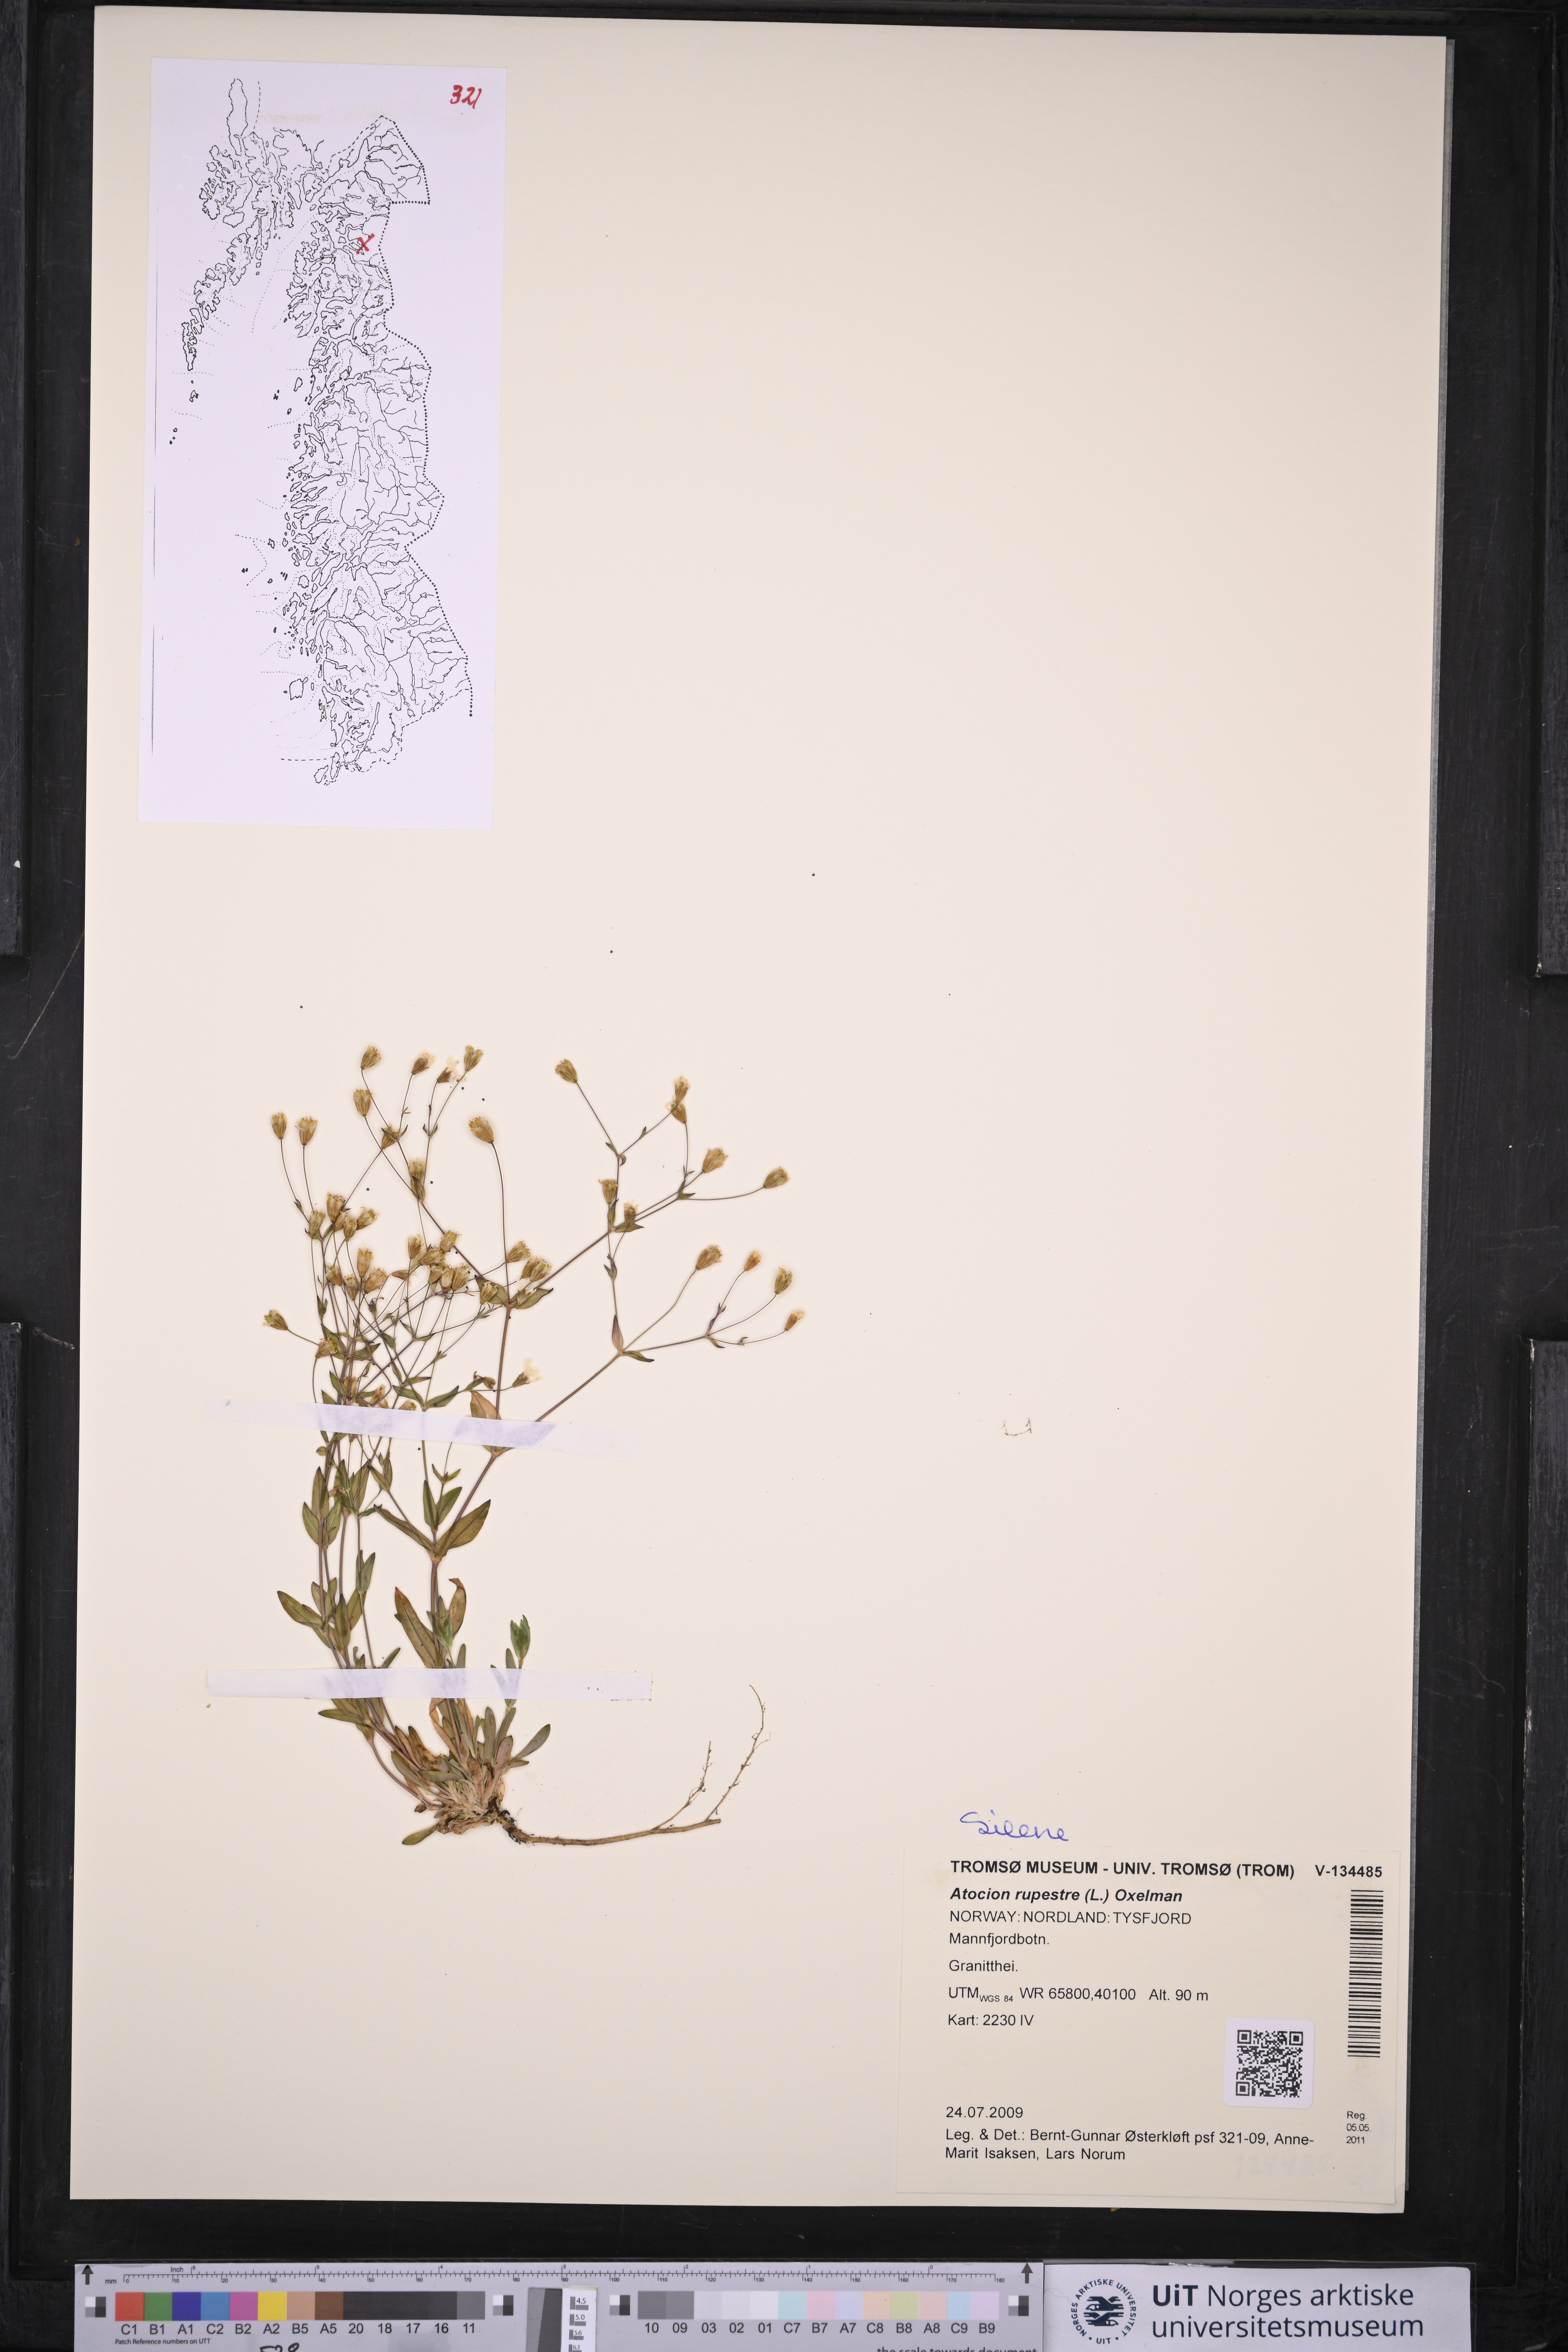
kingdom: Plantae
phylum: Tracheophyta
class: Magnoliopsida
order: Caryophyllales
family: Caryophyllaceae
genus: Atocion
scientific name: Atocion rupestre
